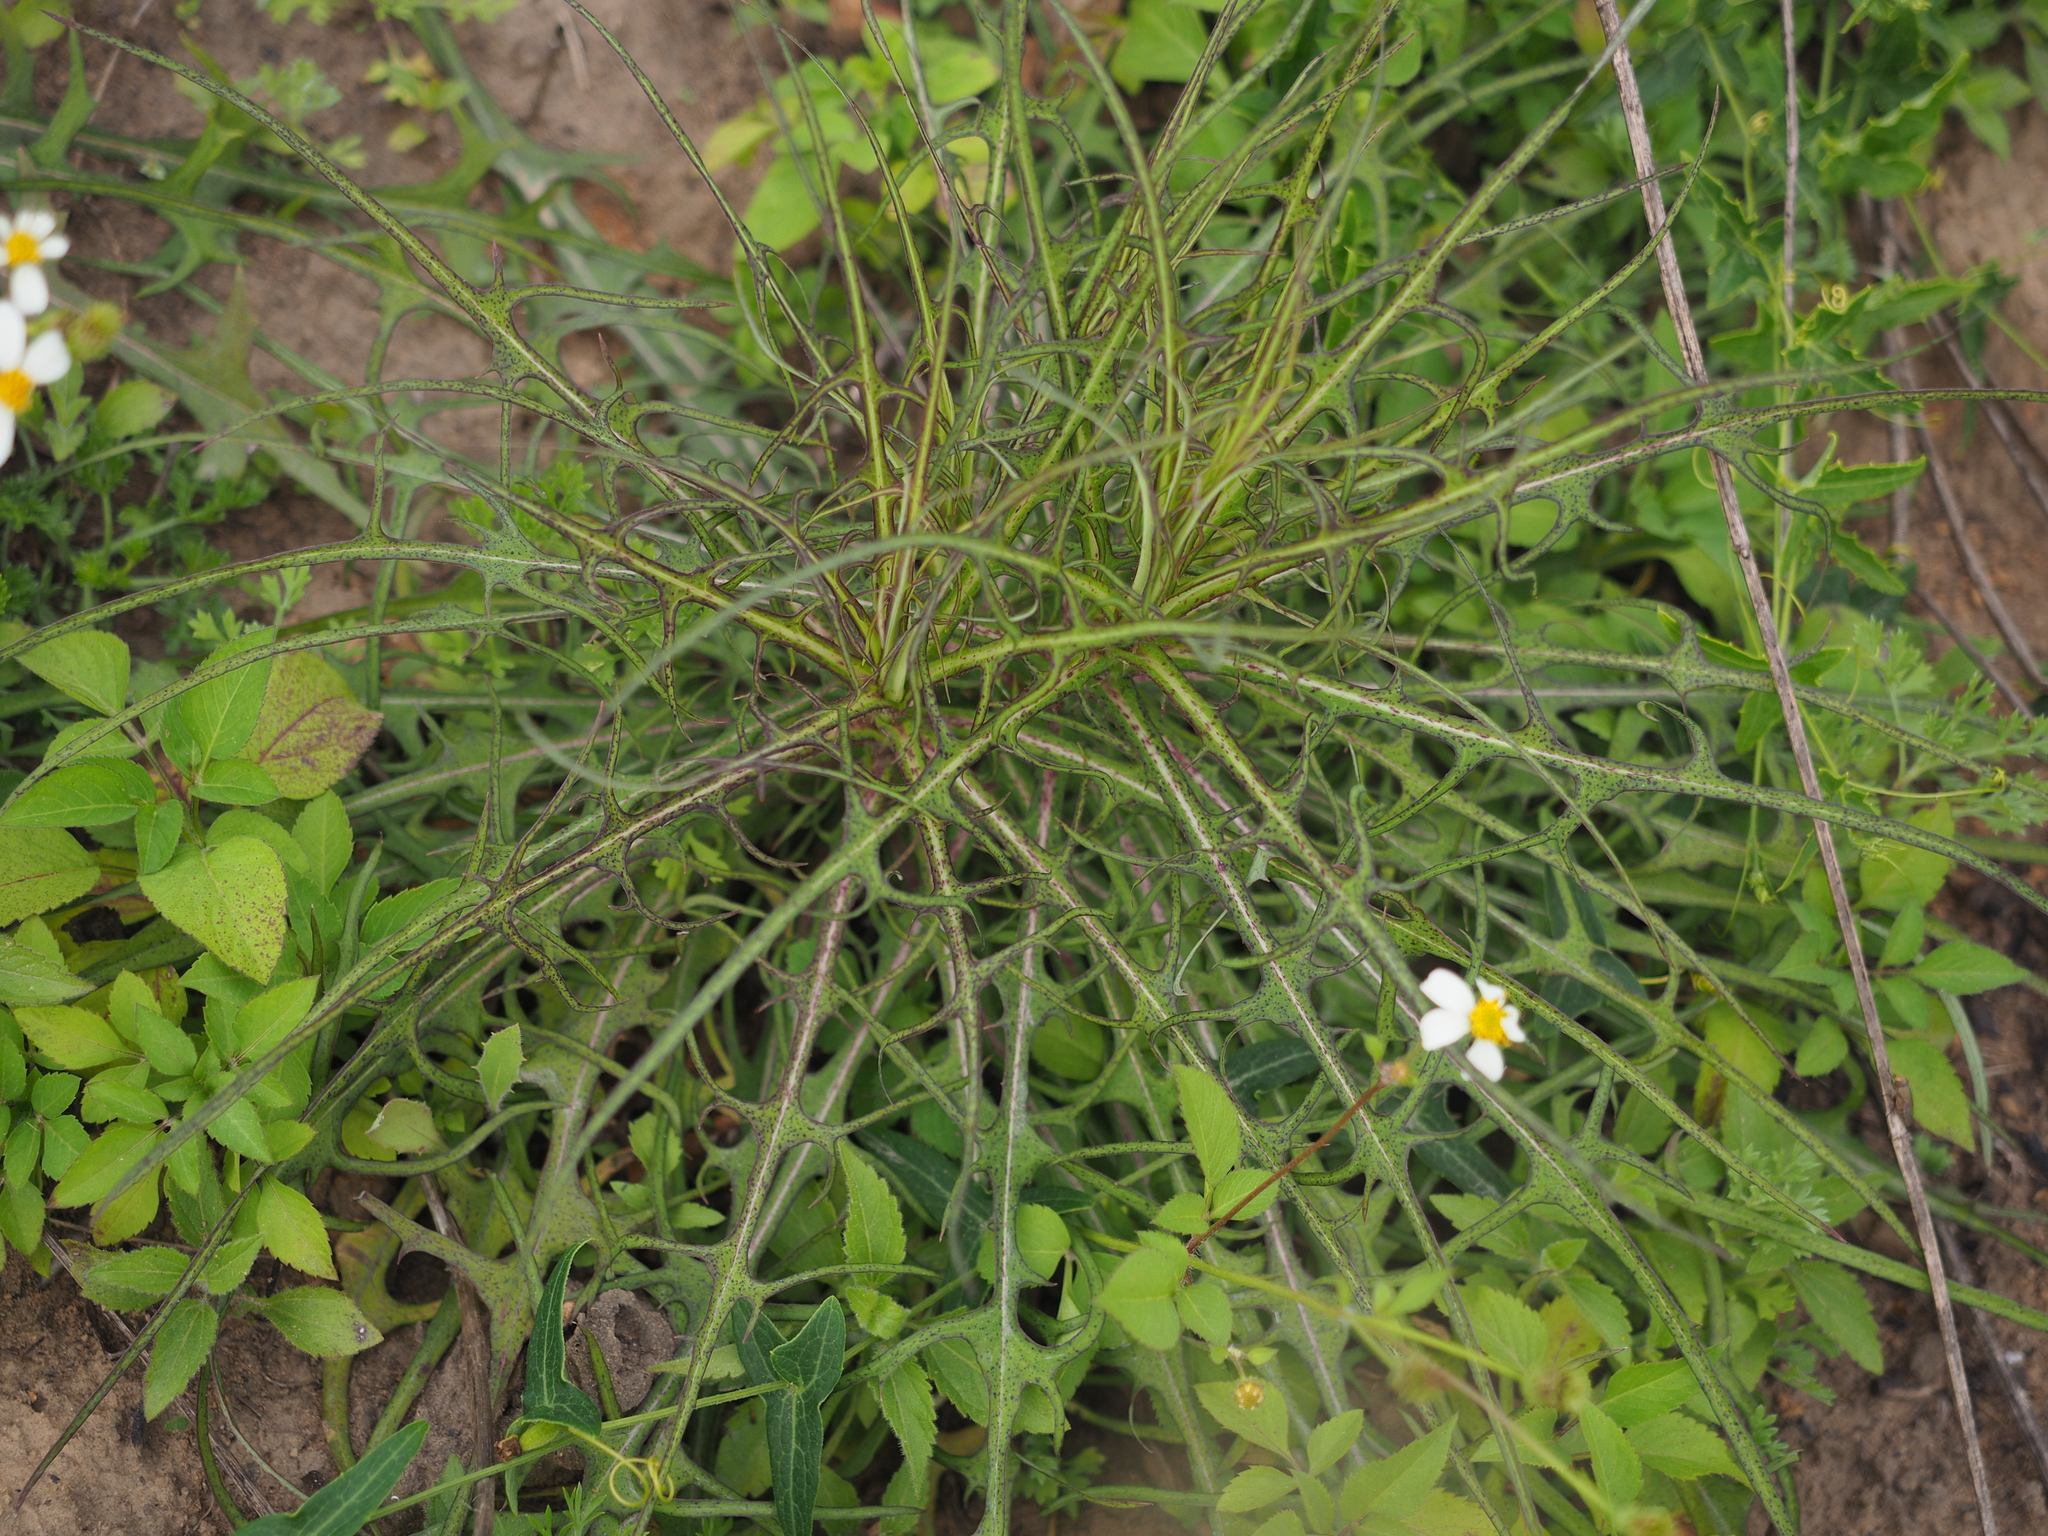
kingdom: Plantae
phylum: Tracheophyta
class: Magnoliopsida
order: Asterales
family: Asteraceae
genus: Lactuca
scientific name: Lactuca indica
